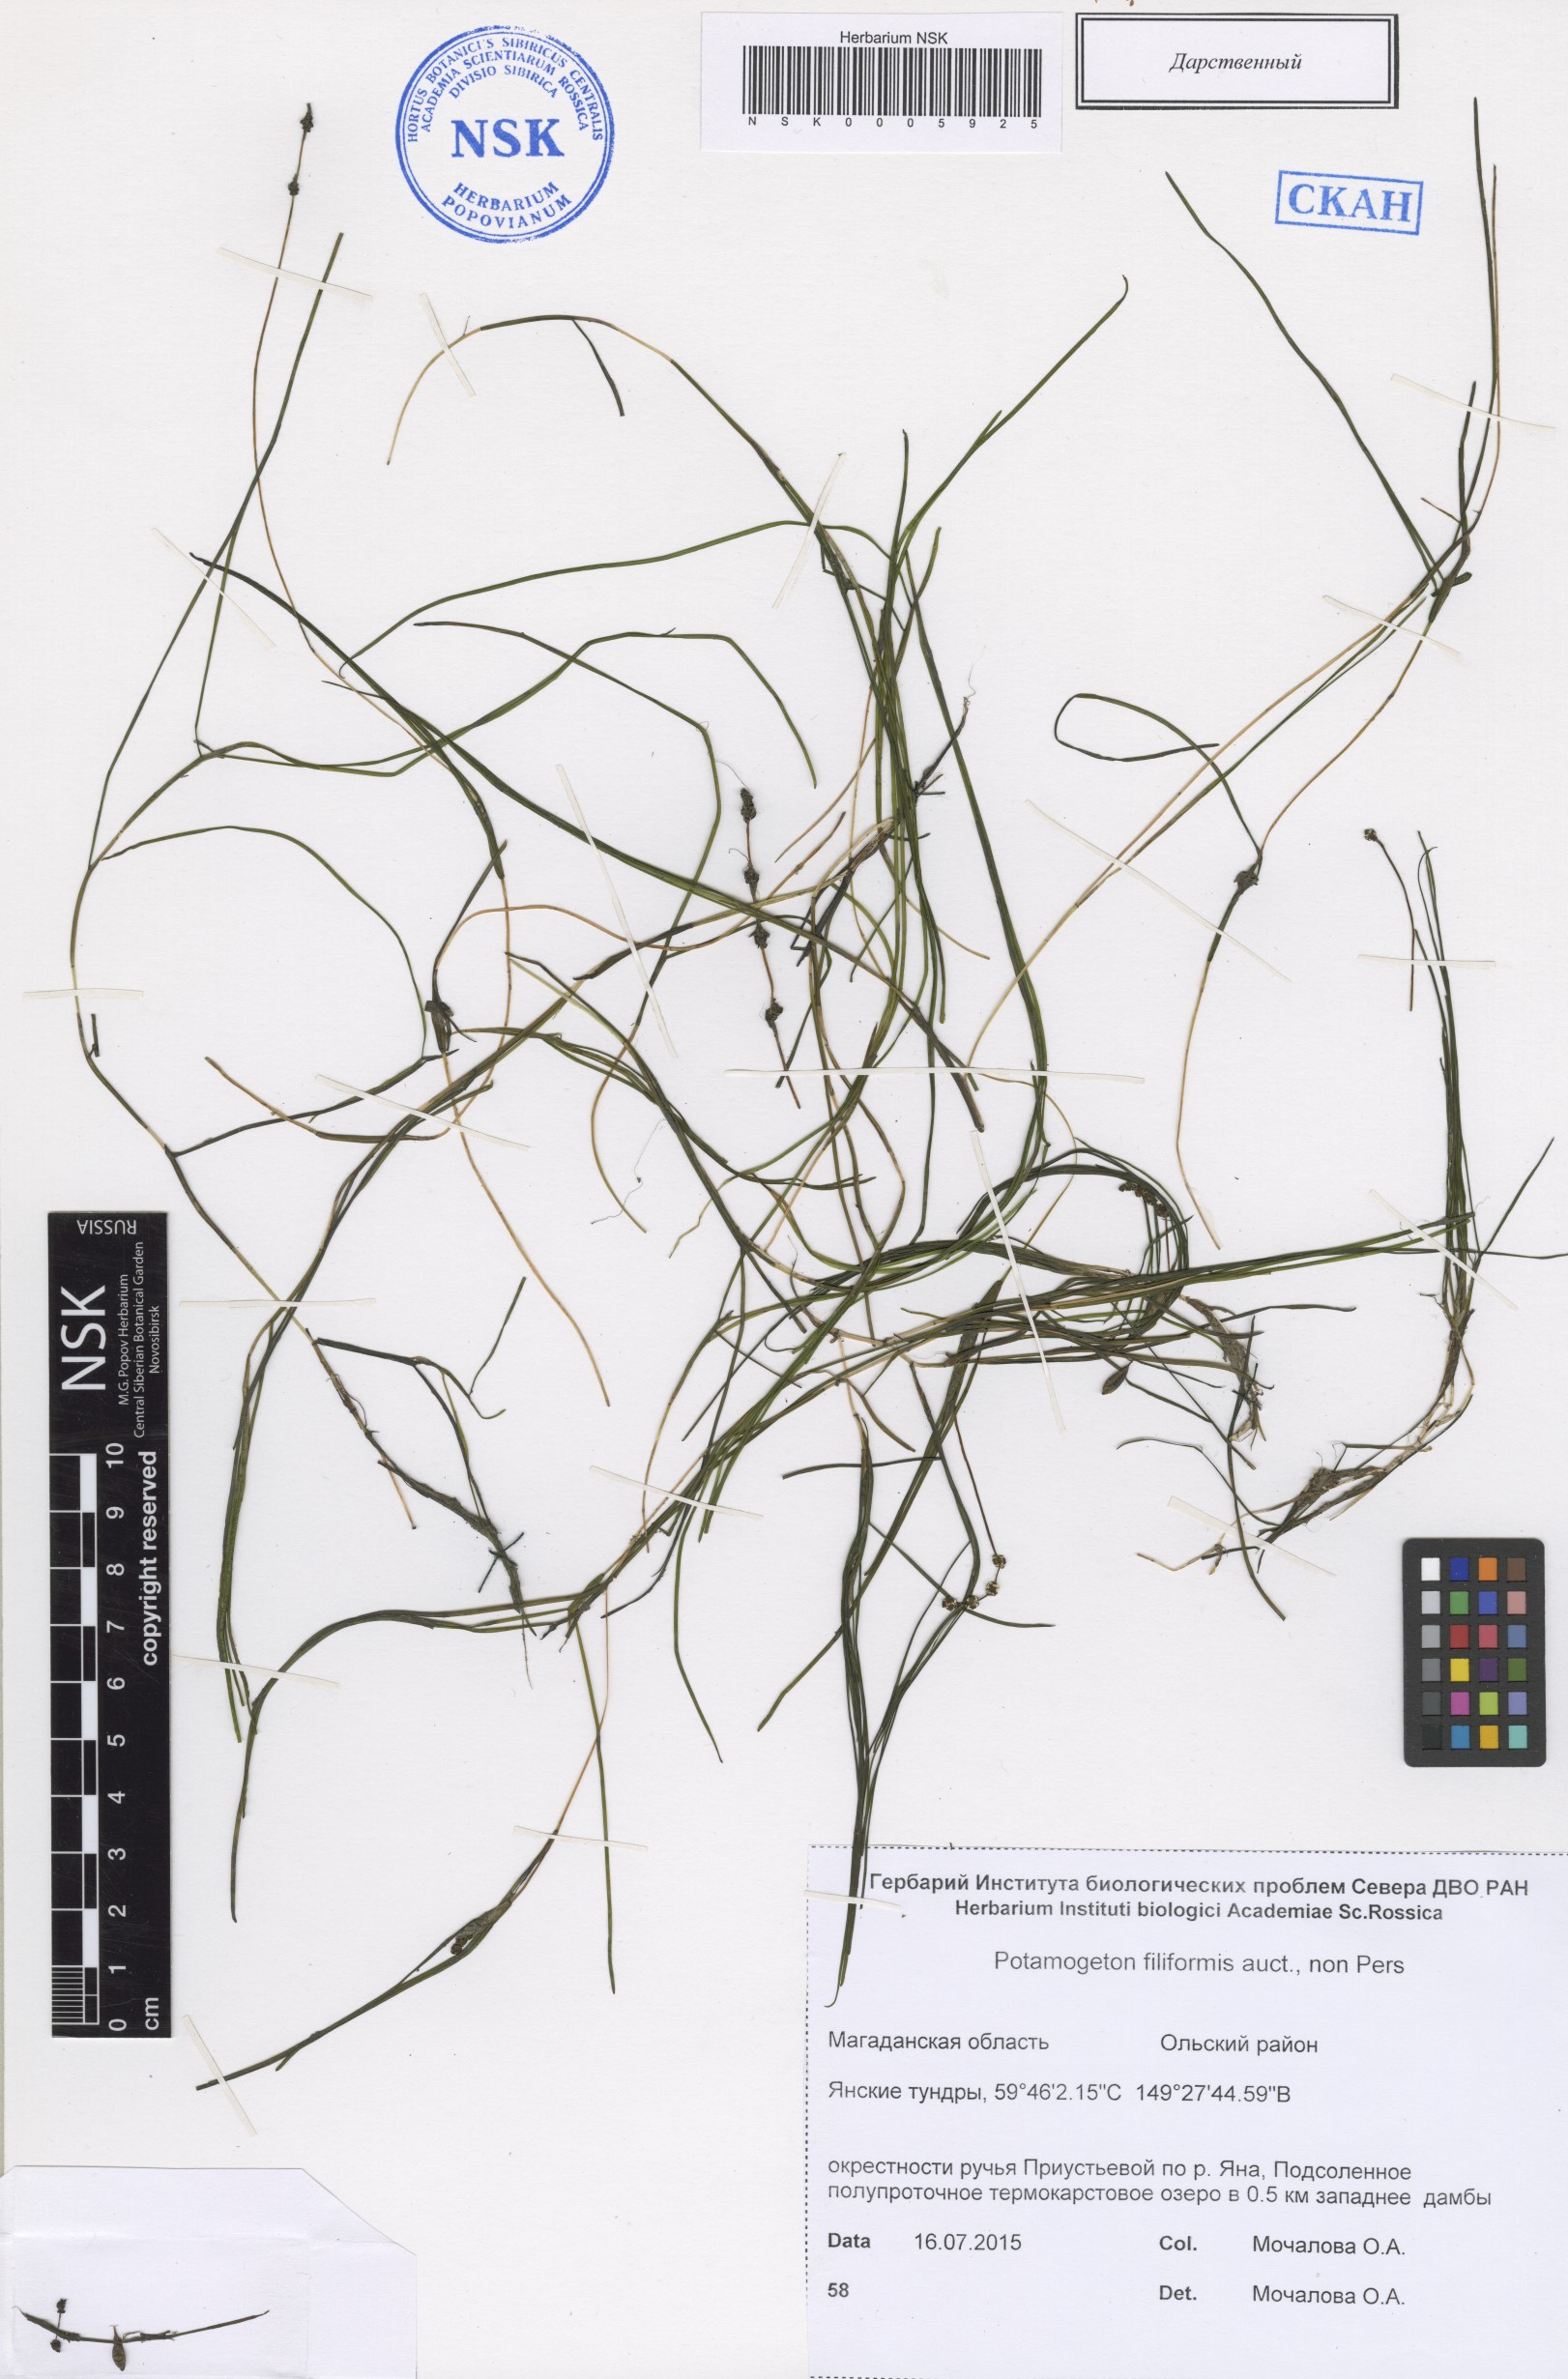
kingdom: Plantae
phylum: Tracheophyta
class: Liliopsida
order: Alismatales
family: Potamogetonaceae
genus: Stuckenia
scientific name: Stuckenia filiformis
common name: Alpine thread-leaved pondweed
